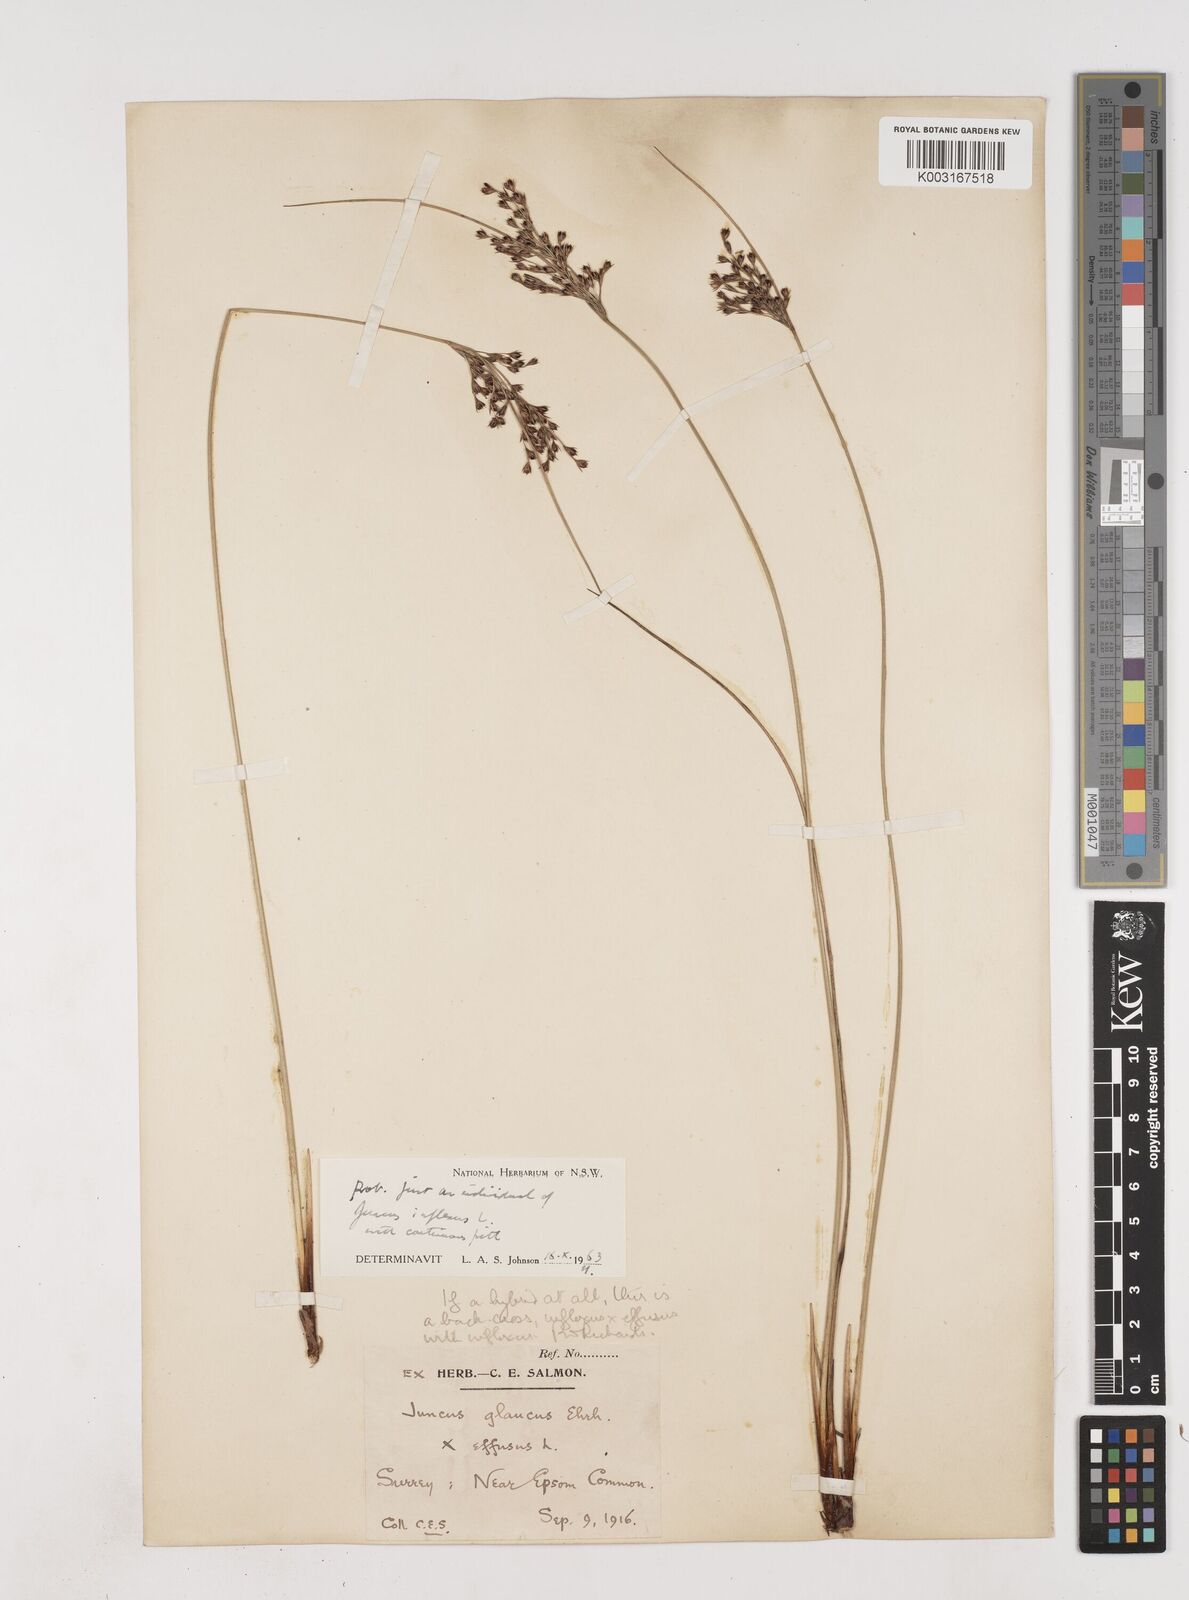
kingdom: Plantae
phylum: Tracheophyta
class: Liliopsida
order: Poales
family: Juncaceae
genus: Juncus
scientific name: Juncus inflexus
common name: Hard rush
